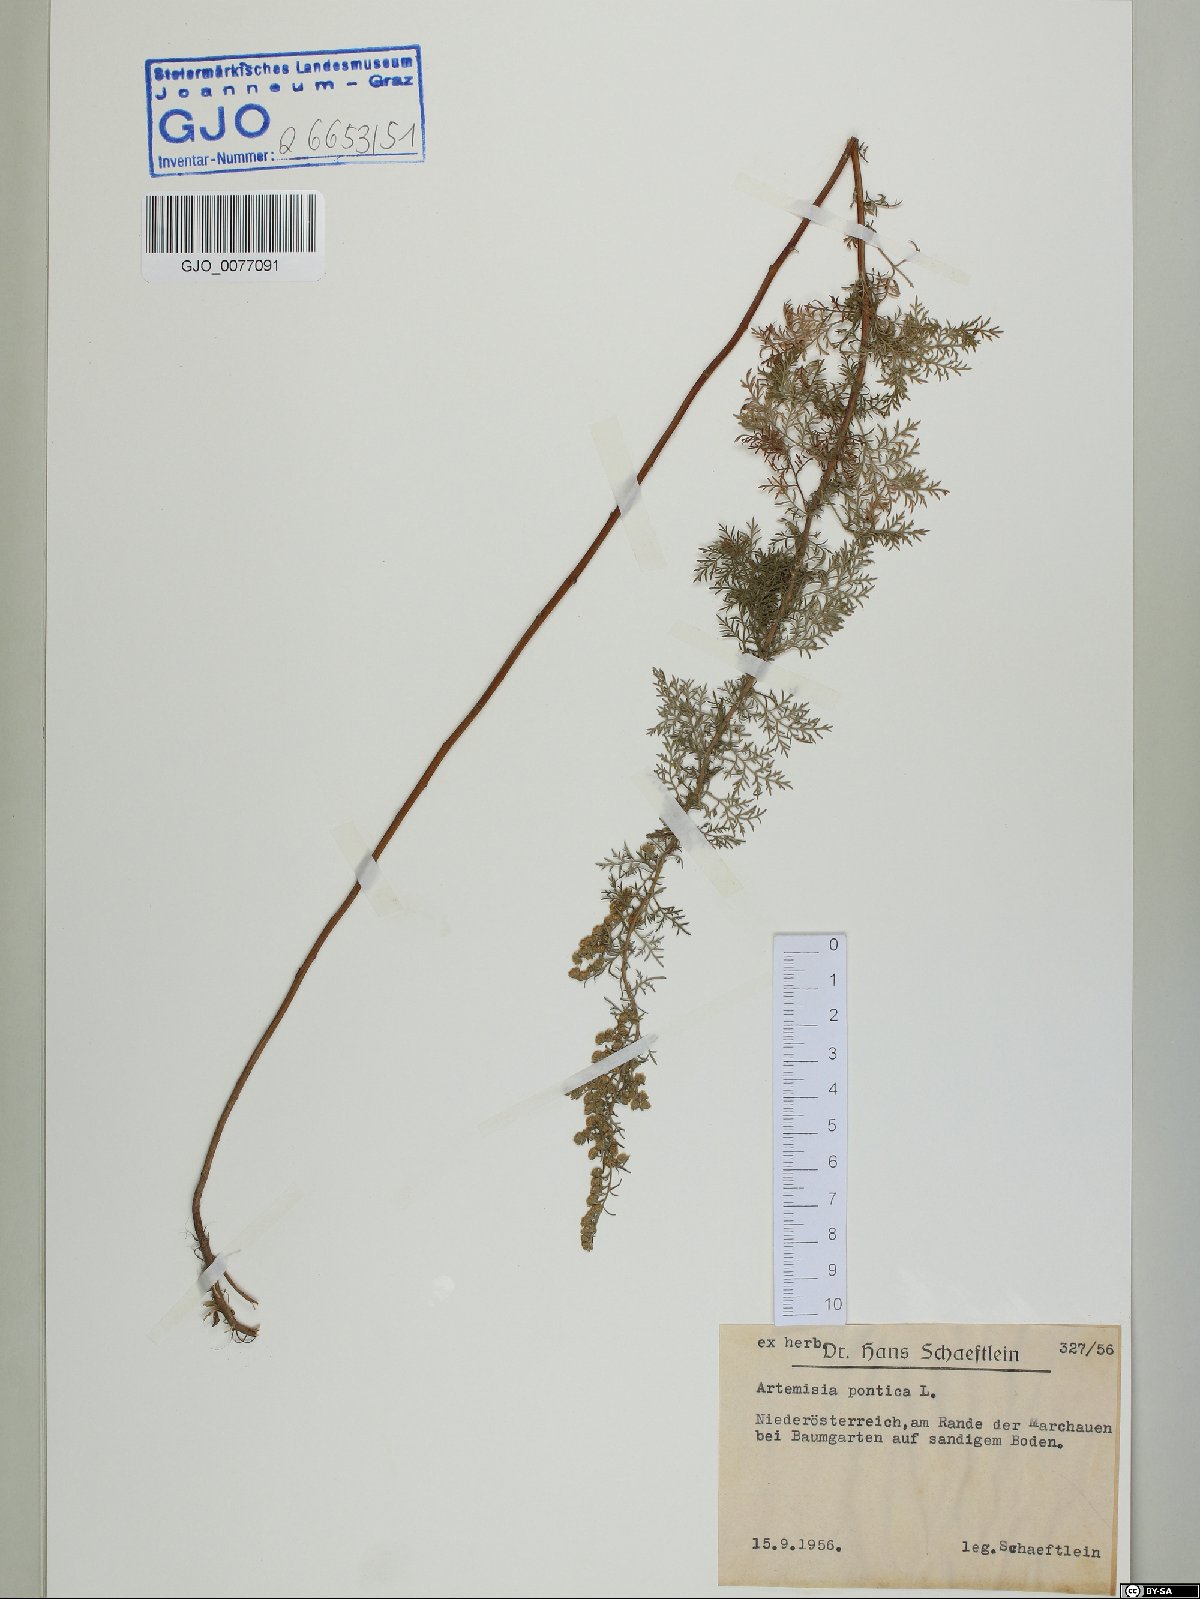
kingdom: Plantae
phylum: Tracheophyta
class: Magnoliopsida
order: Asterales
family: Asteraceae
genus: Artemisia
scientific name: Artemisia pontica
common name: Roman wormwood
